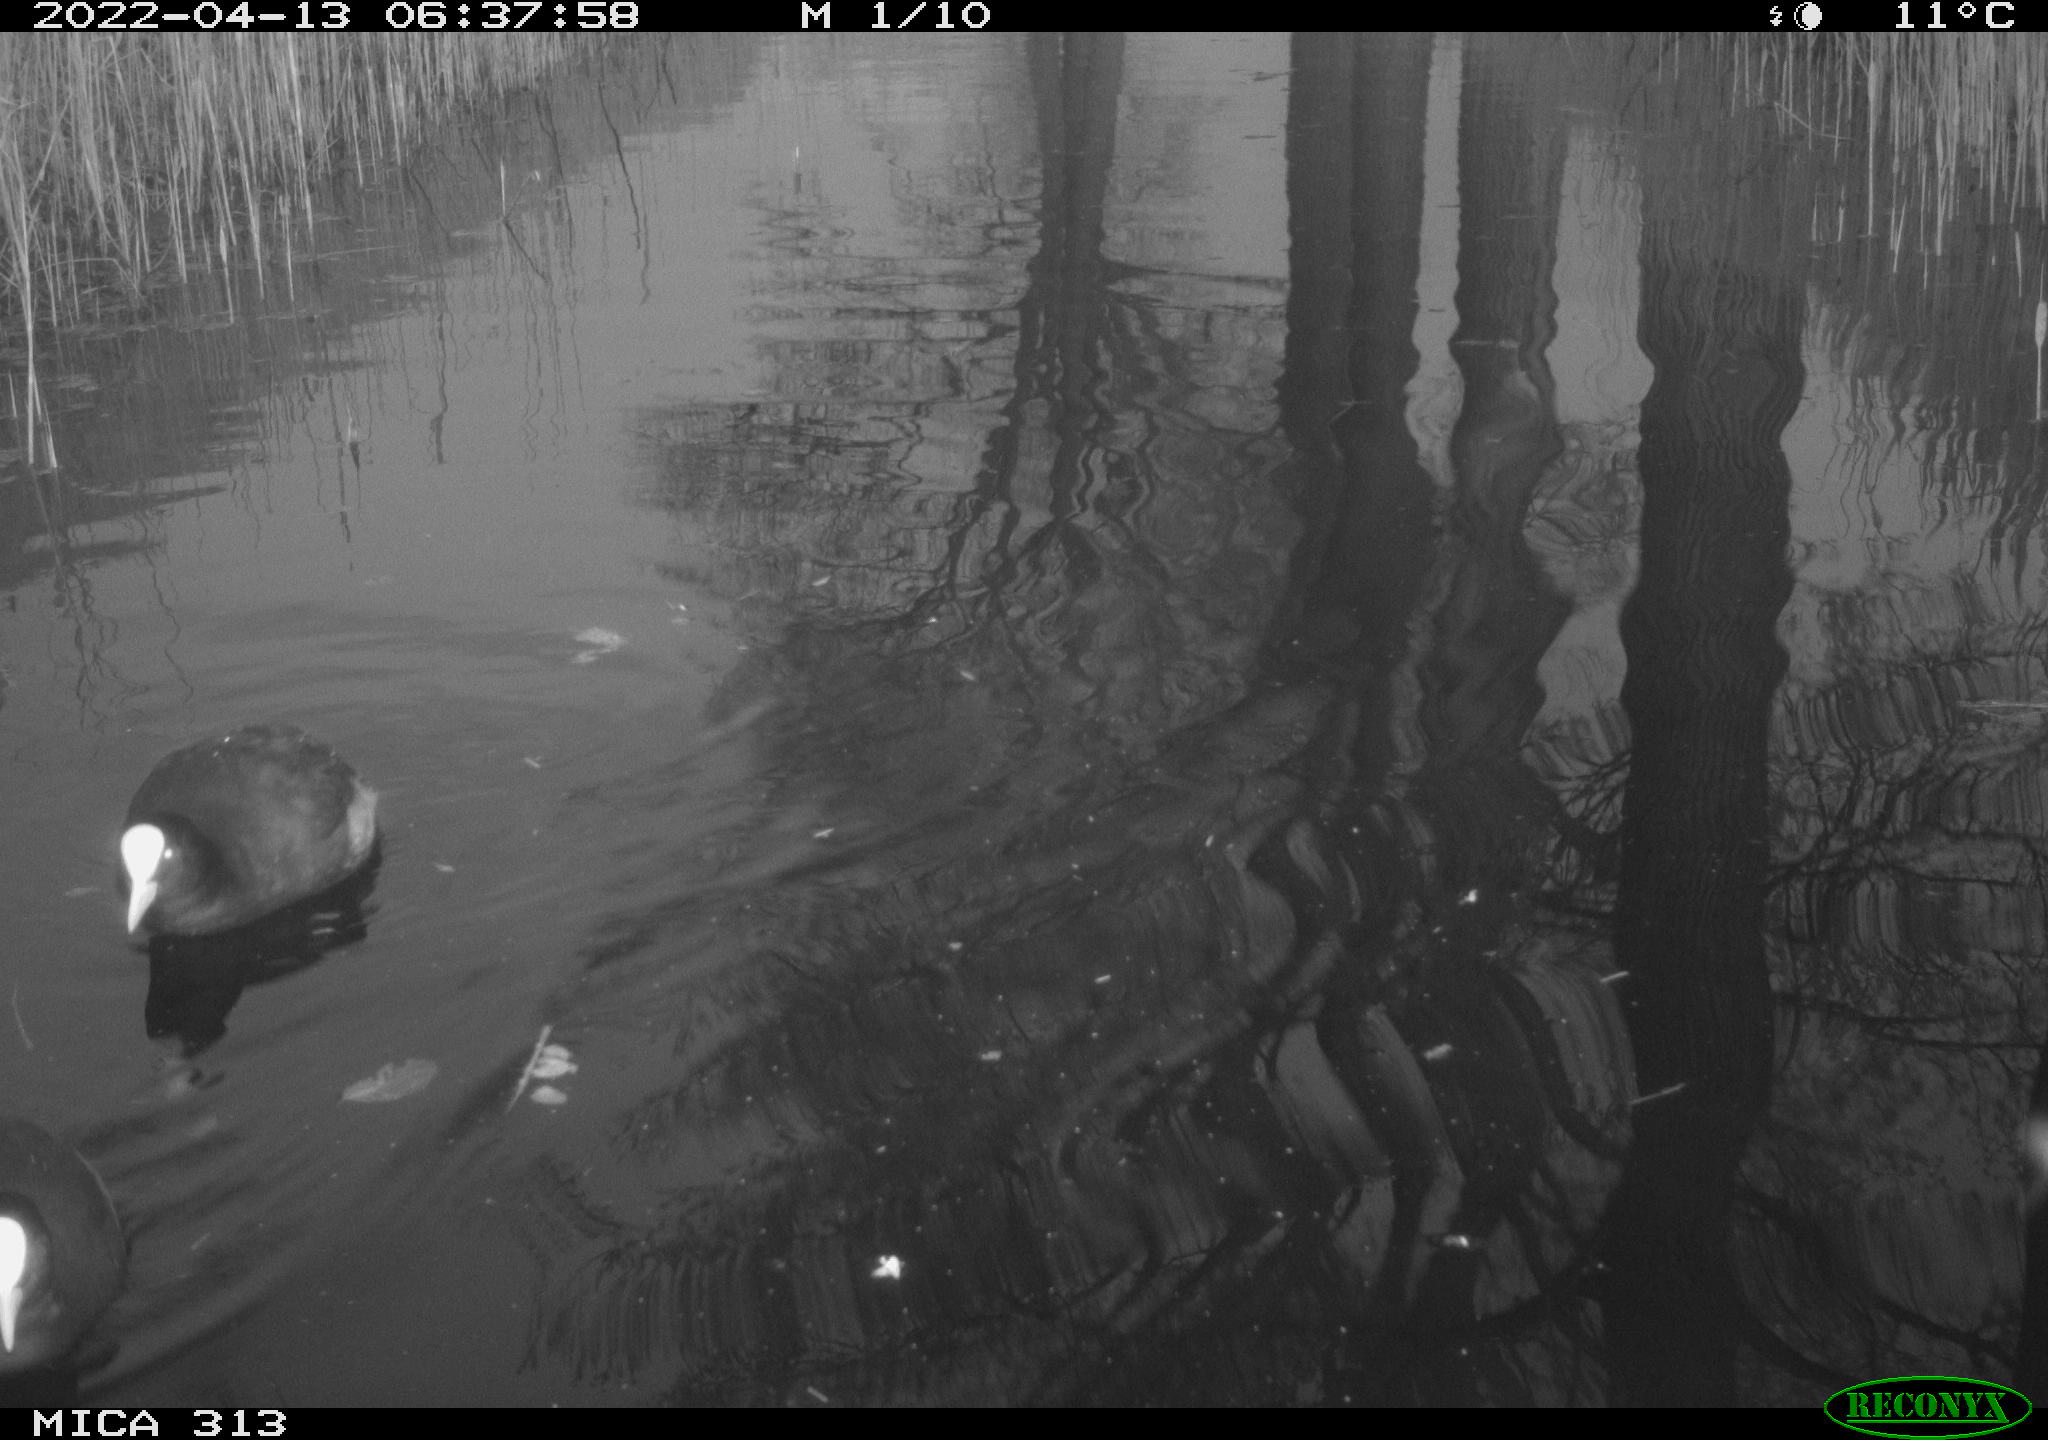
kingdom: Animalia
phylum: Chordata
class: Aves
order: Gruiformes
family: Rallidae
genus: Fulica
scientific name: Fulica atra
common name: Eurasian coot
